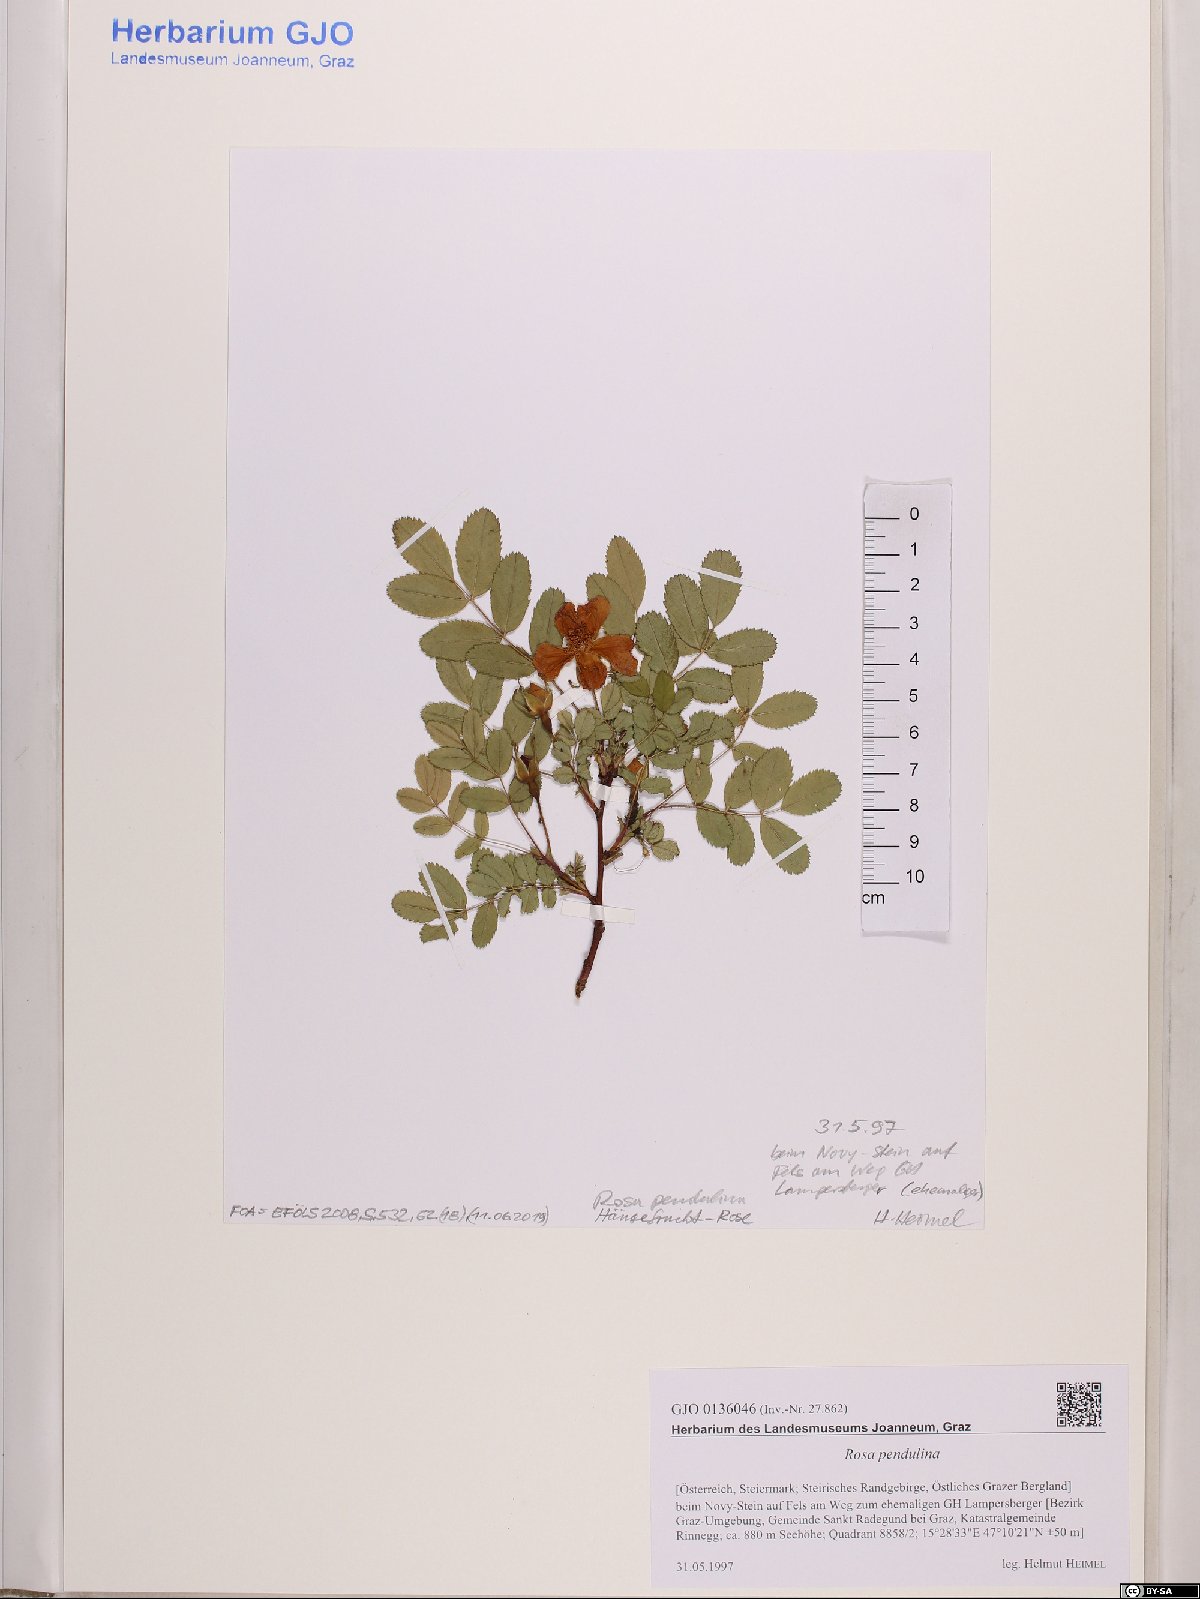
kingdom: Plantae
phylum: Tracheophyta
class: Magnoliopsida
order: Rosales
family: Rosaceae
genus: Rosa
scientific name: Rosa pendulina
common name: Alpine rose
